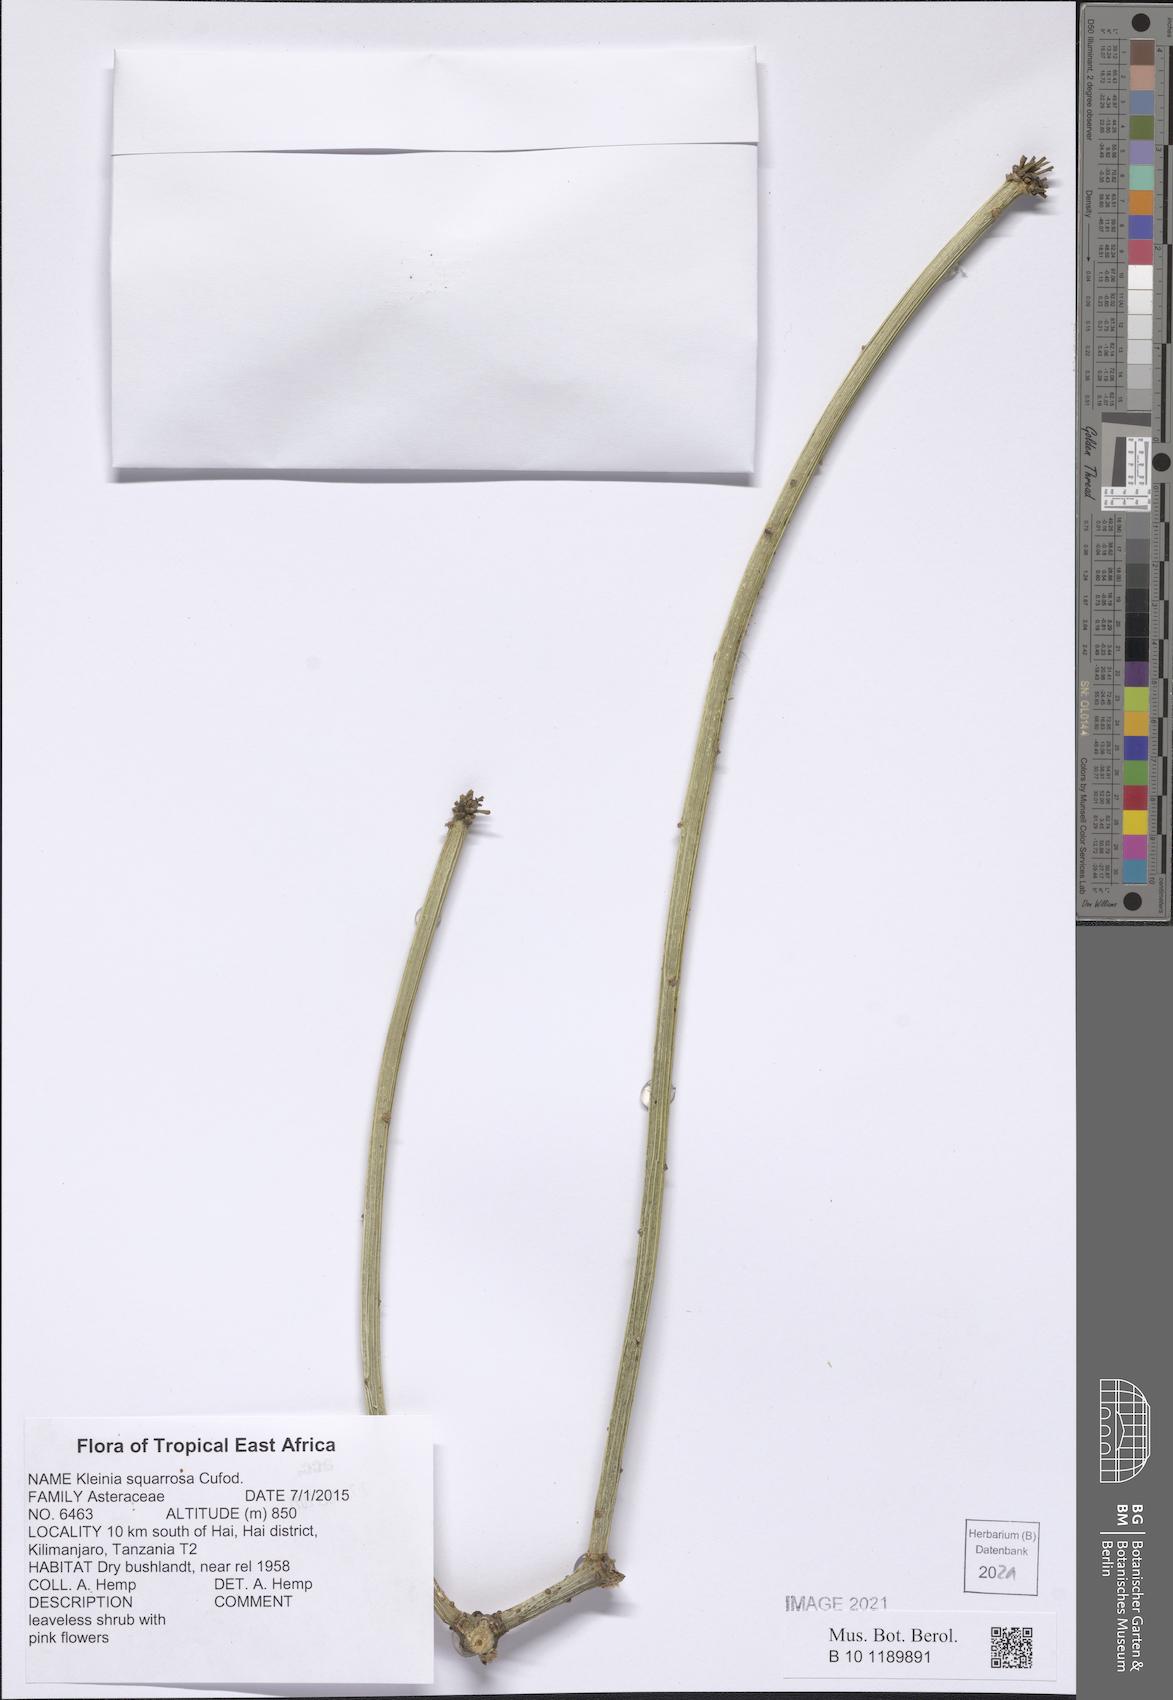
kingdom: Plantae
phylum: Tracheophyta
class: Magnoliopsida
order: Asterales
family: Asteraceae
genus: Kleinia
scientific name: Kleinia squarrosa
